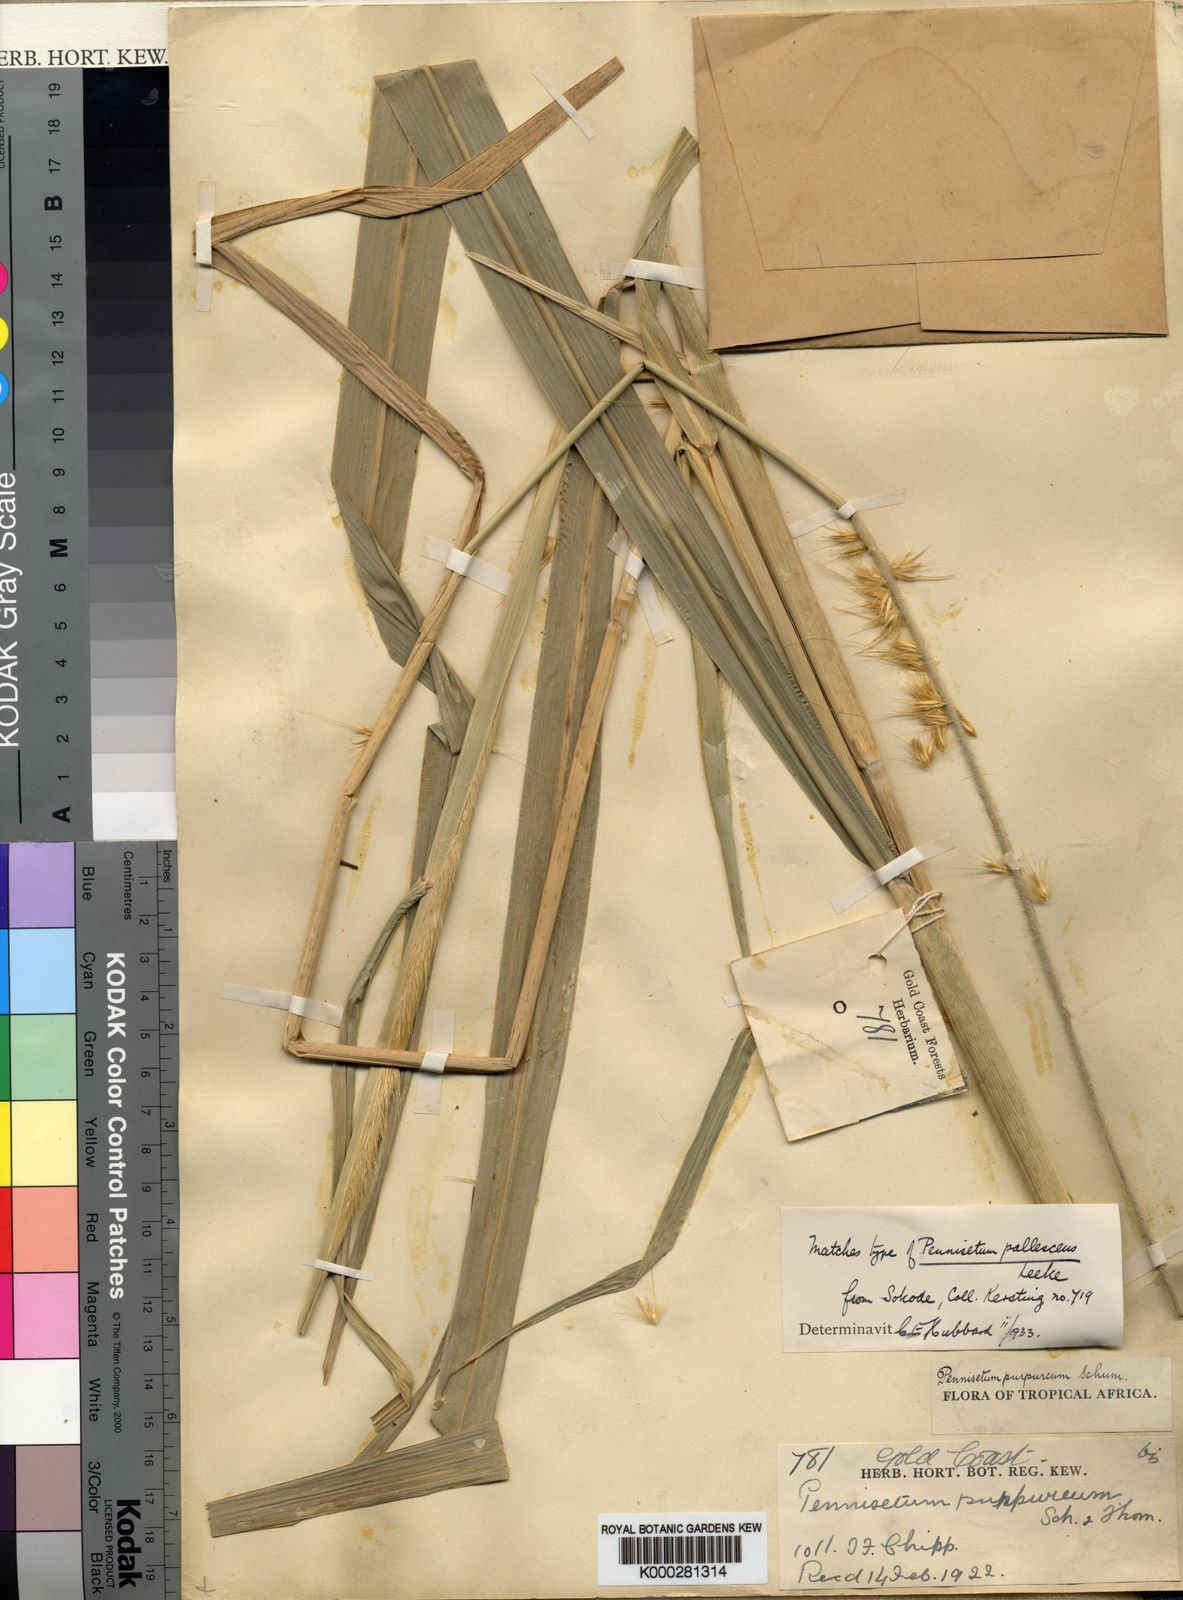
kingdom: Plantae
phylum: Tracheophyta
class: Liliopsida
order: Poales
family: Poaceae
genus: Cenchrus
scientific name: Cenchrus purpureus
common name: Elephant grass
